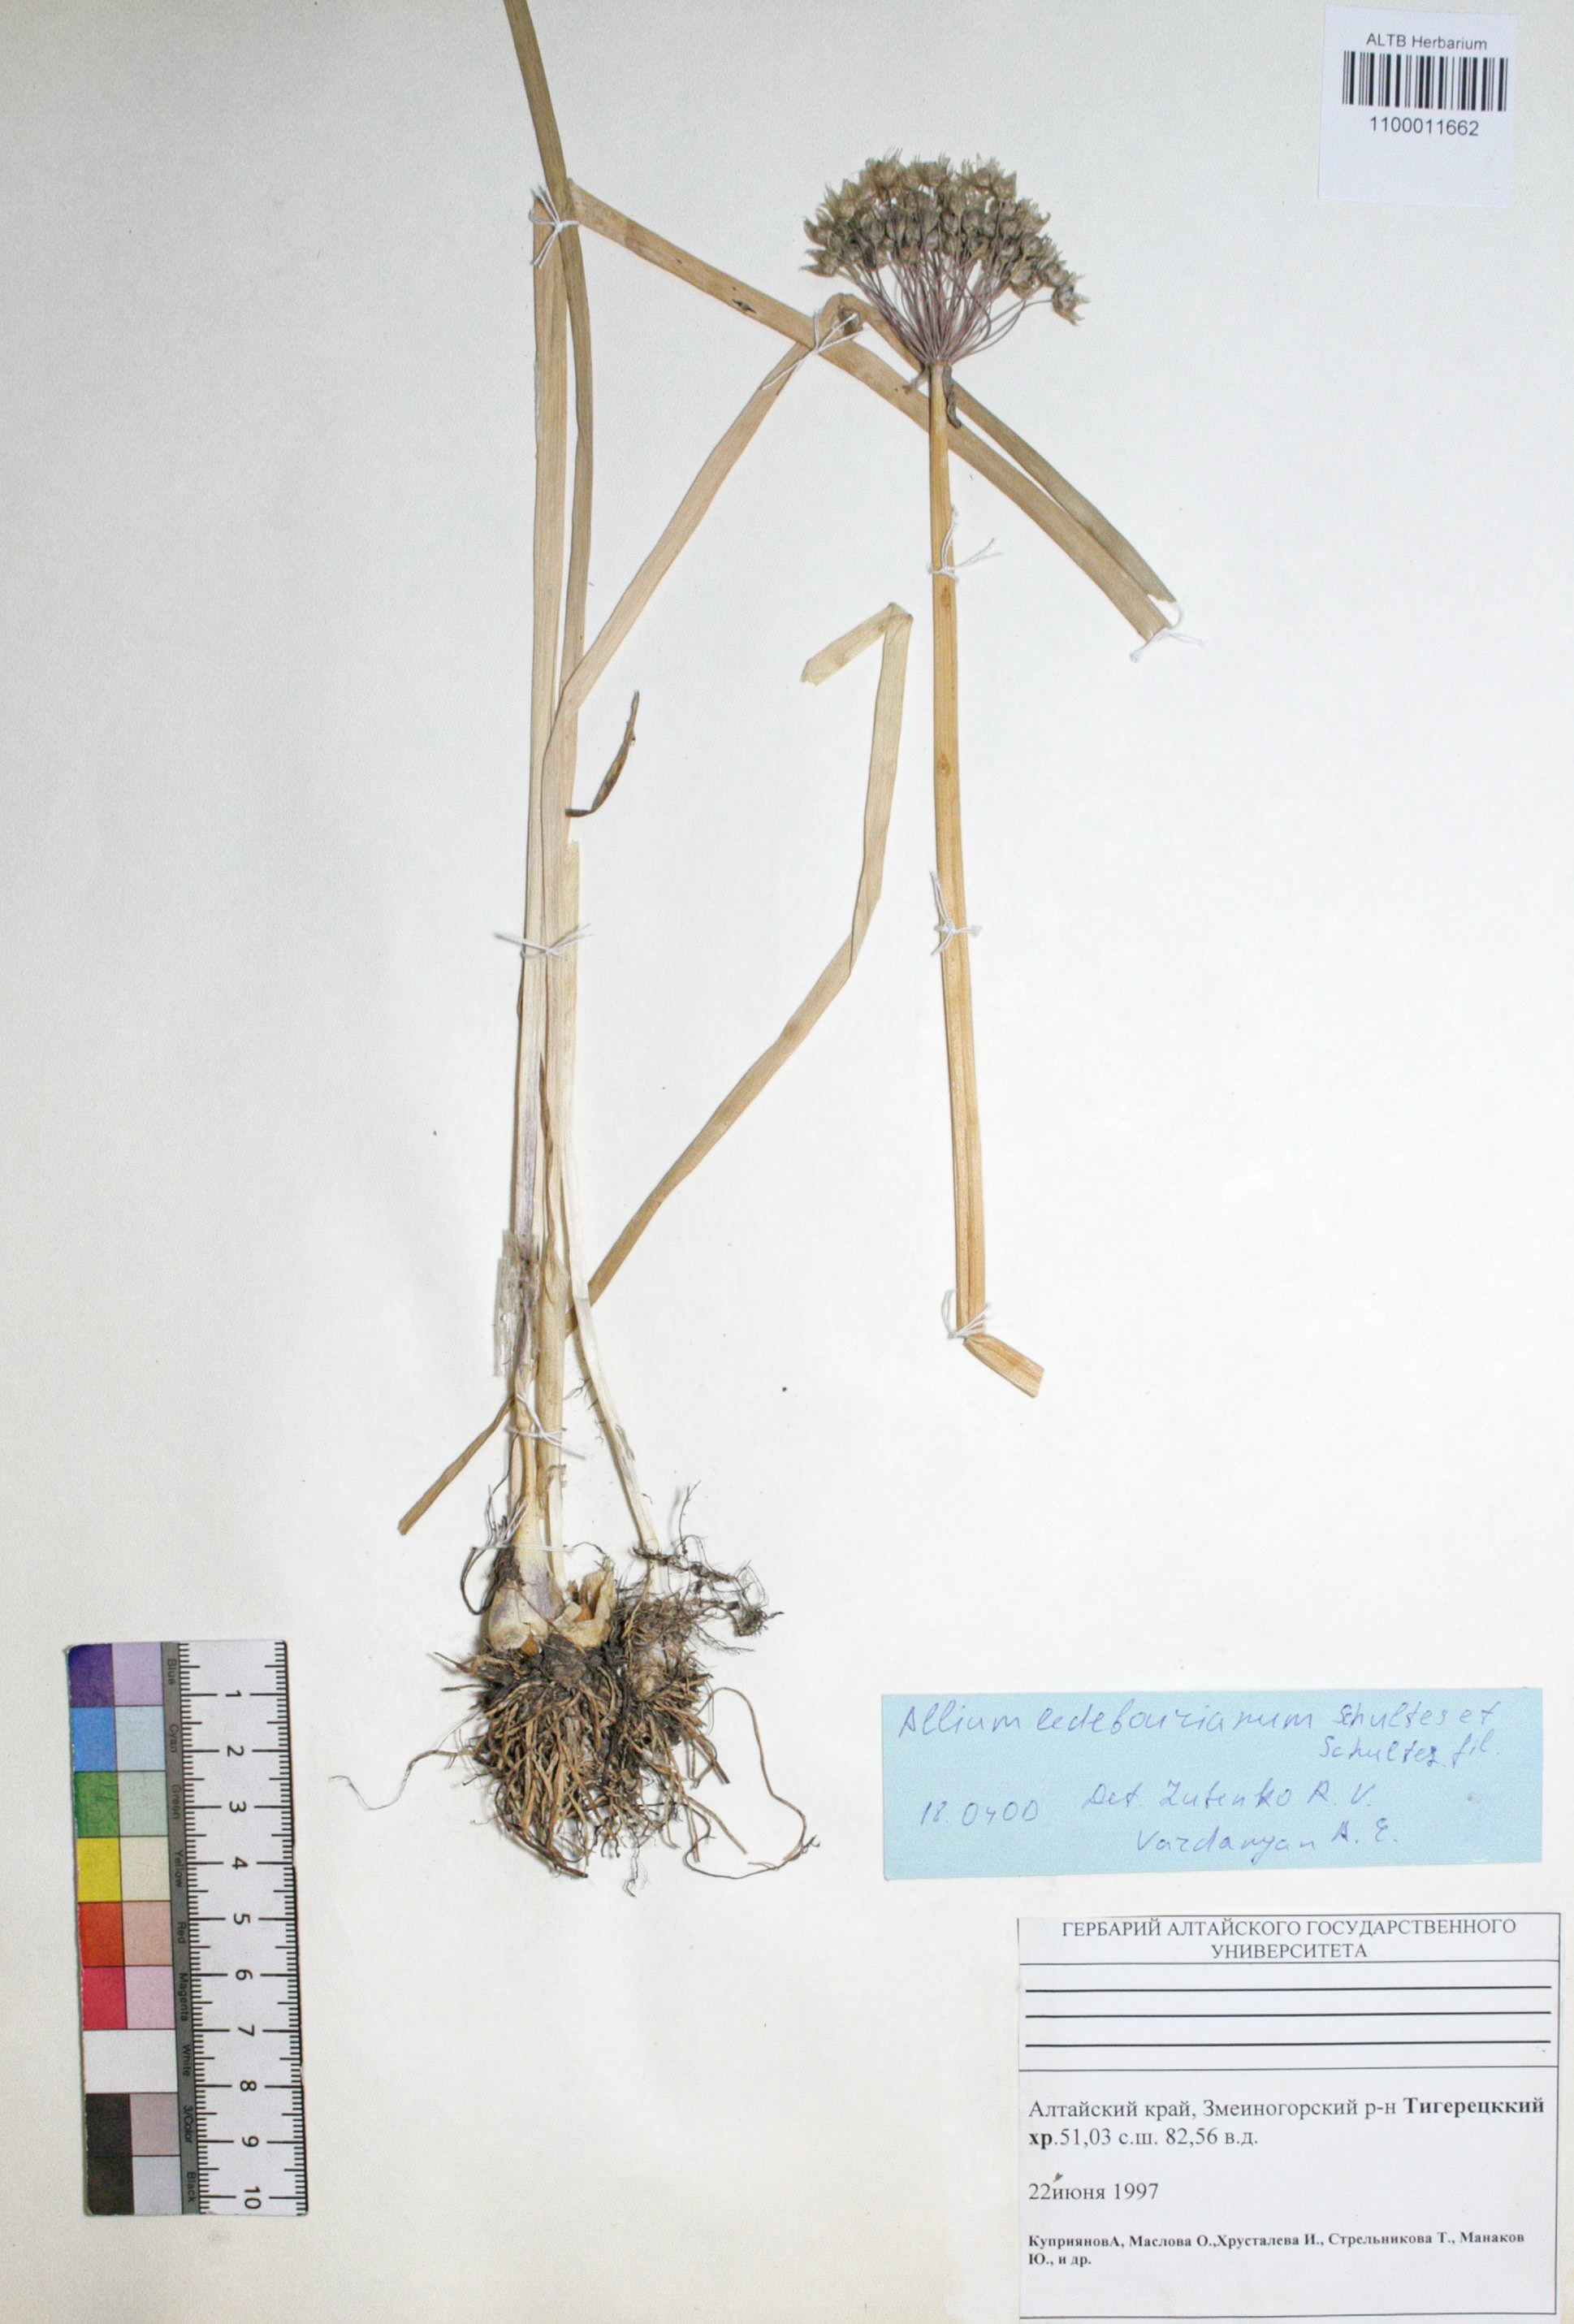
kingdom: Plantae
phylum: Tracheophyta
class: Liliopsida
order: Asparagales
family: Amaryllidaceae
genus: Allium
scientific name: Allium ledebourianum
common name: Ledebour chive
